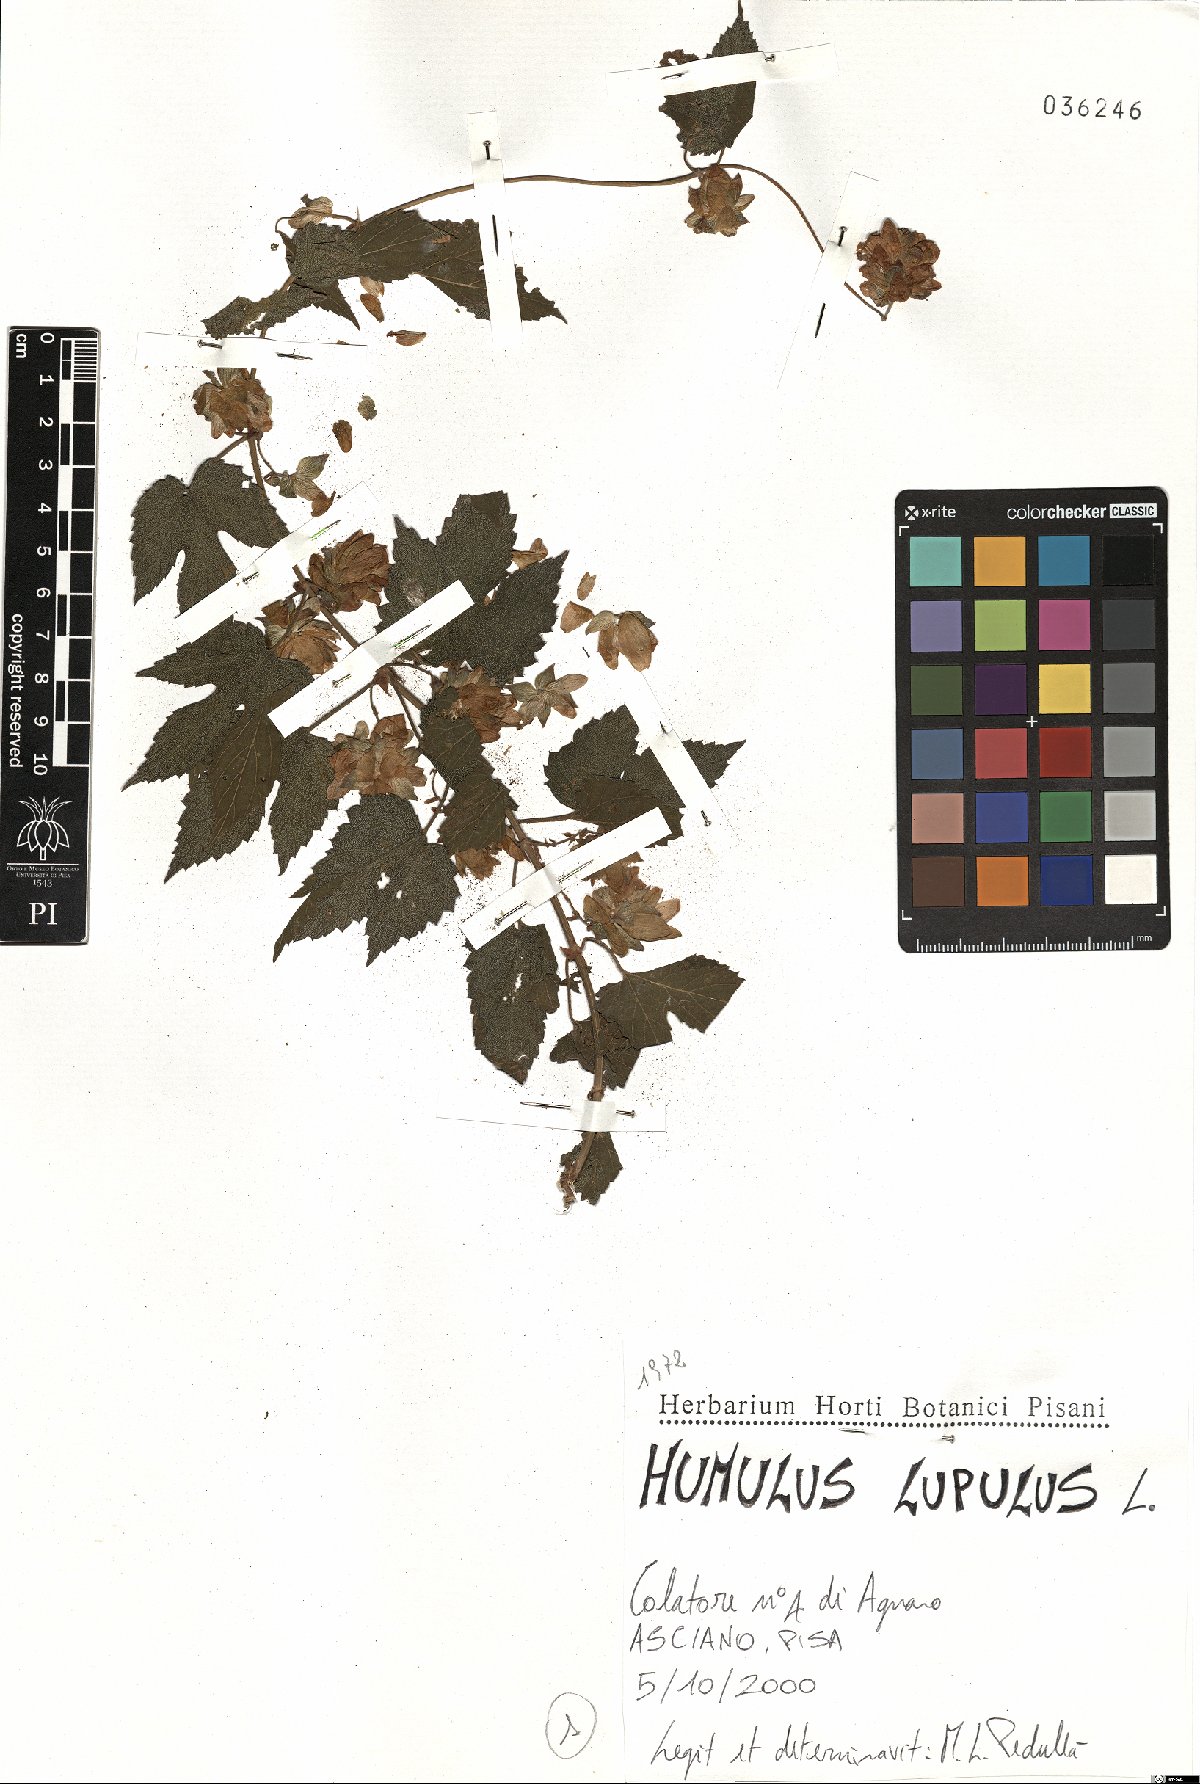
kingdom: Plantae
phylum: Tracheophyta
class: Magnoliopsida
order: Rosales
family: Cannabaceae
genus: Humulus
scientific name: Humulus lupulus
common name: Hop
